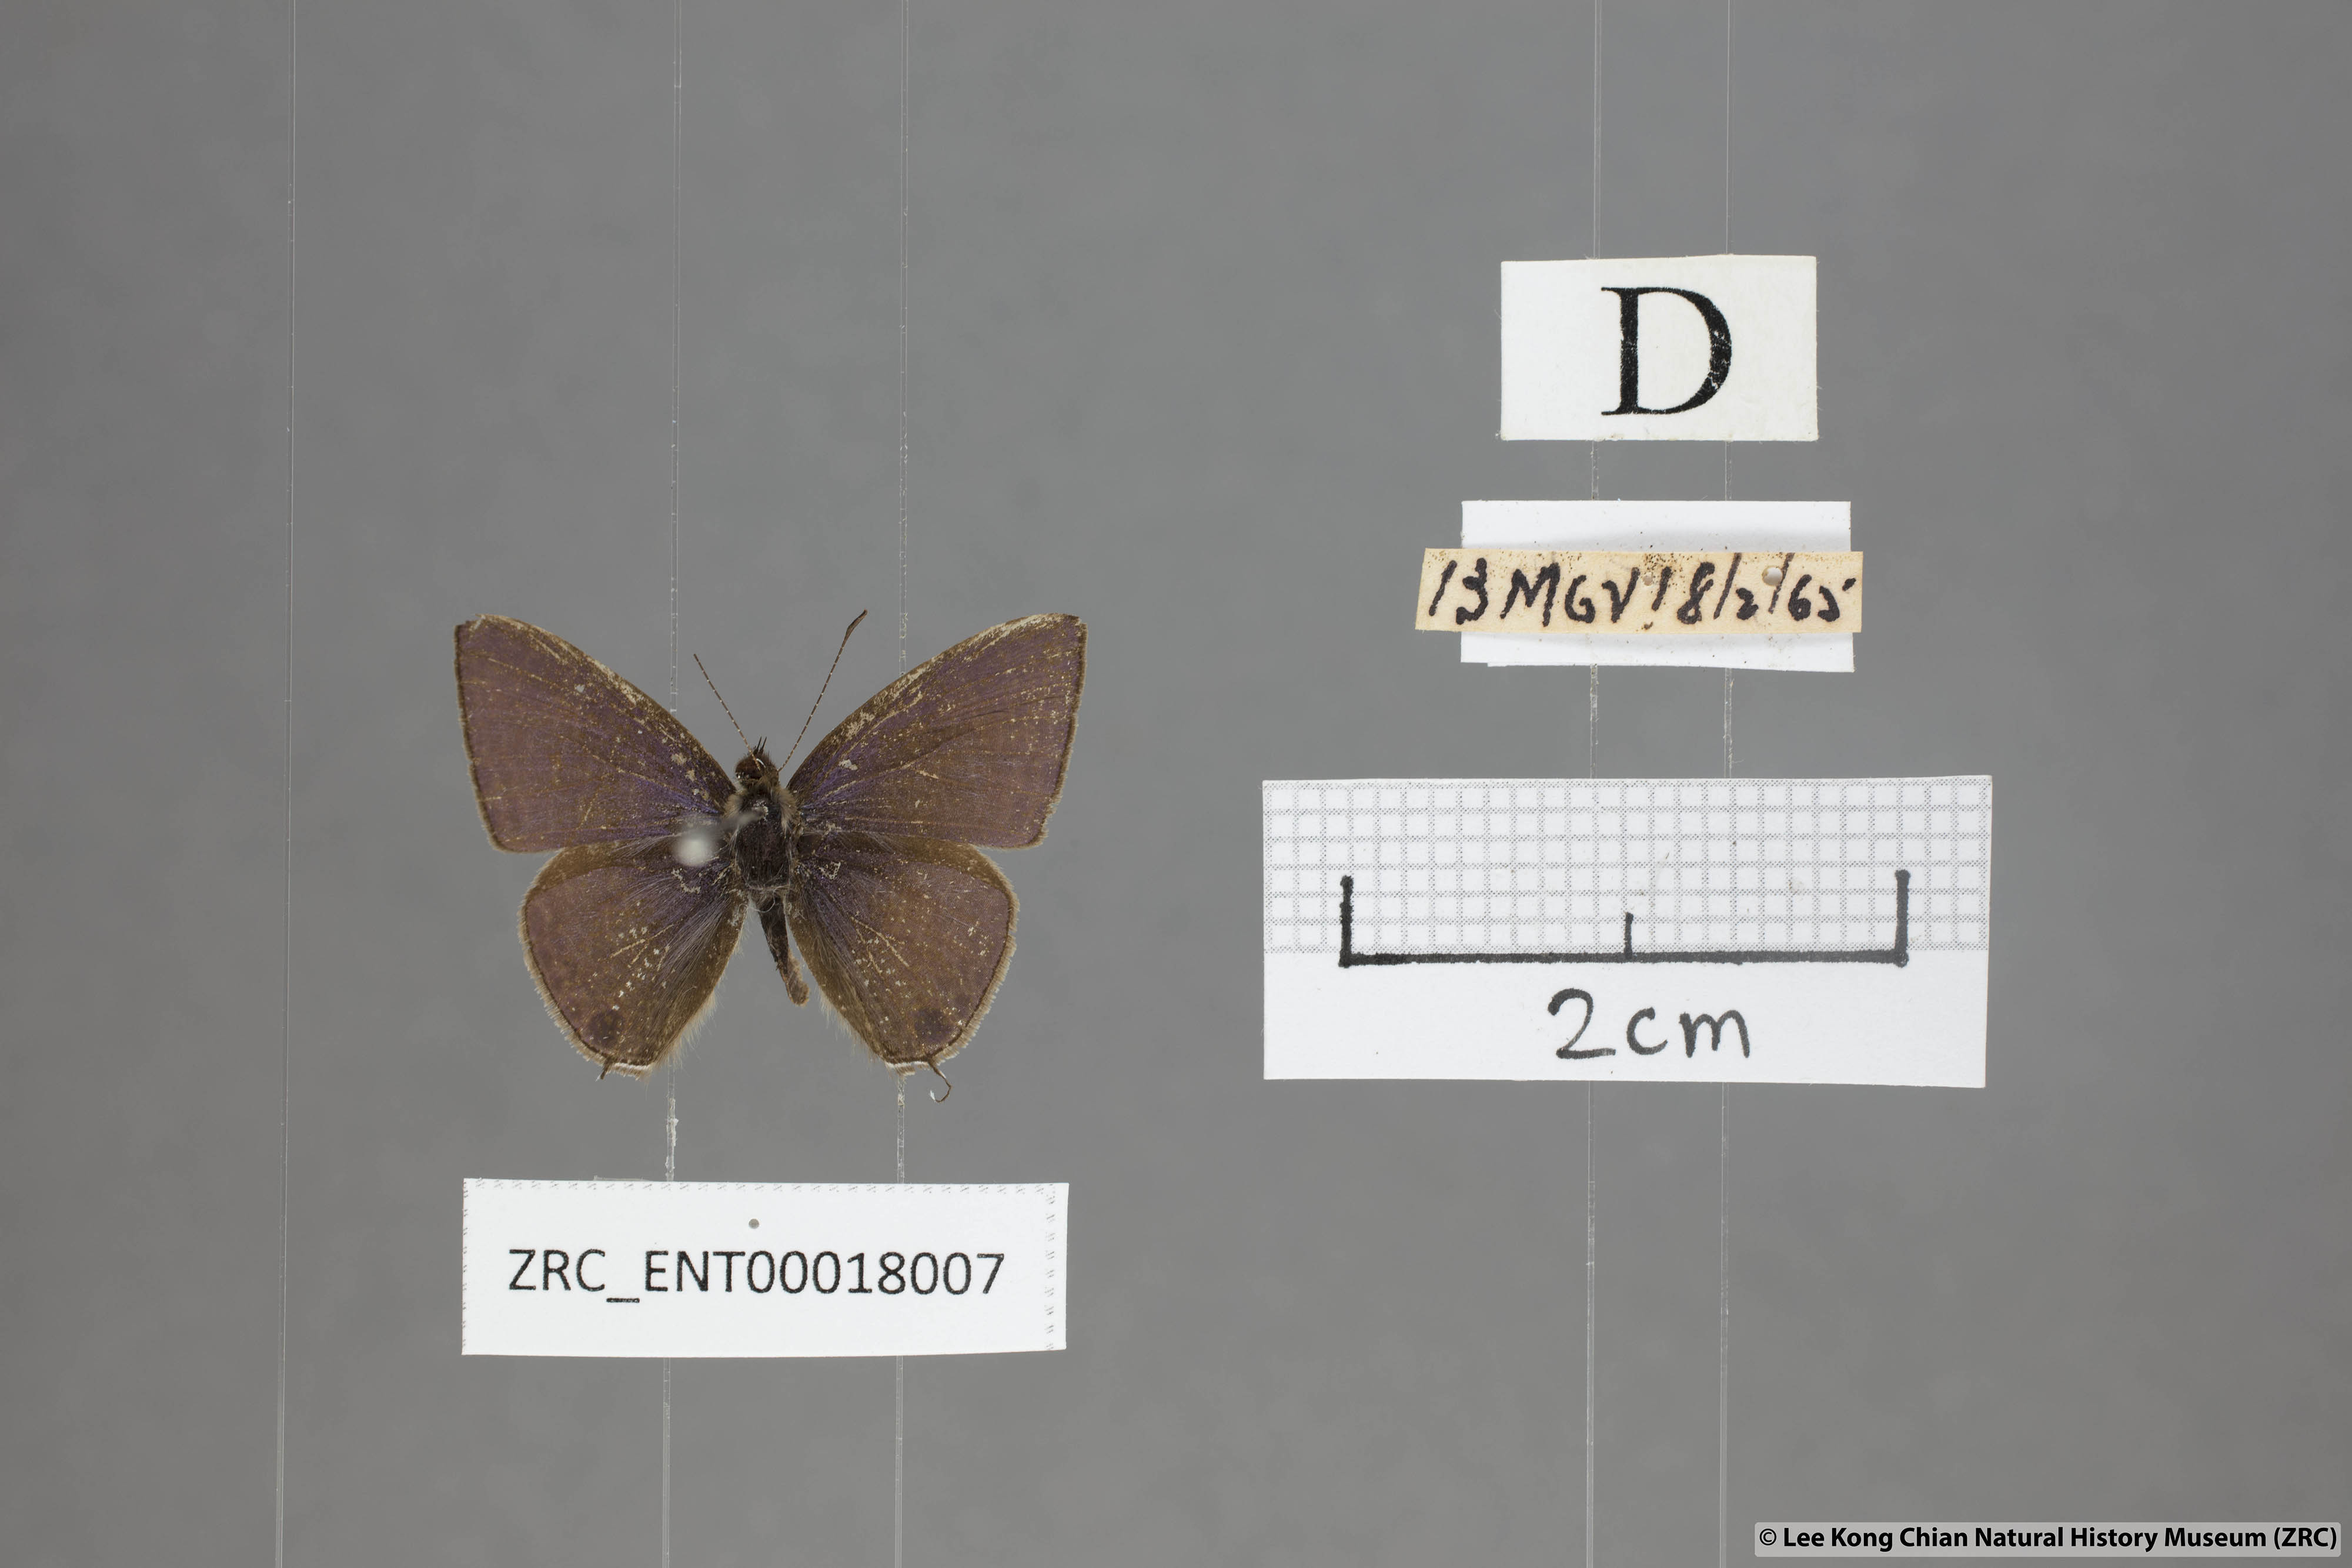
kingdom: Animalia
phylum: Arthropoda
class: Insecta
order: Lepidoptera
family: Lycaenidae
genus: Ionolyce
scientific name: Ionolyce helicon
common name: Pointed line blue
